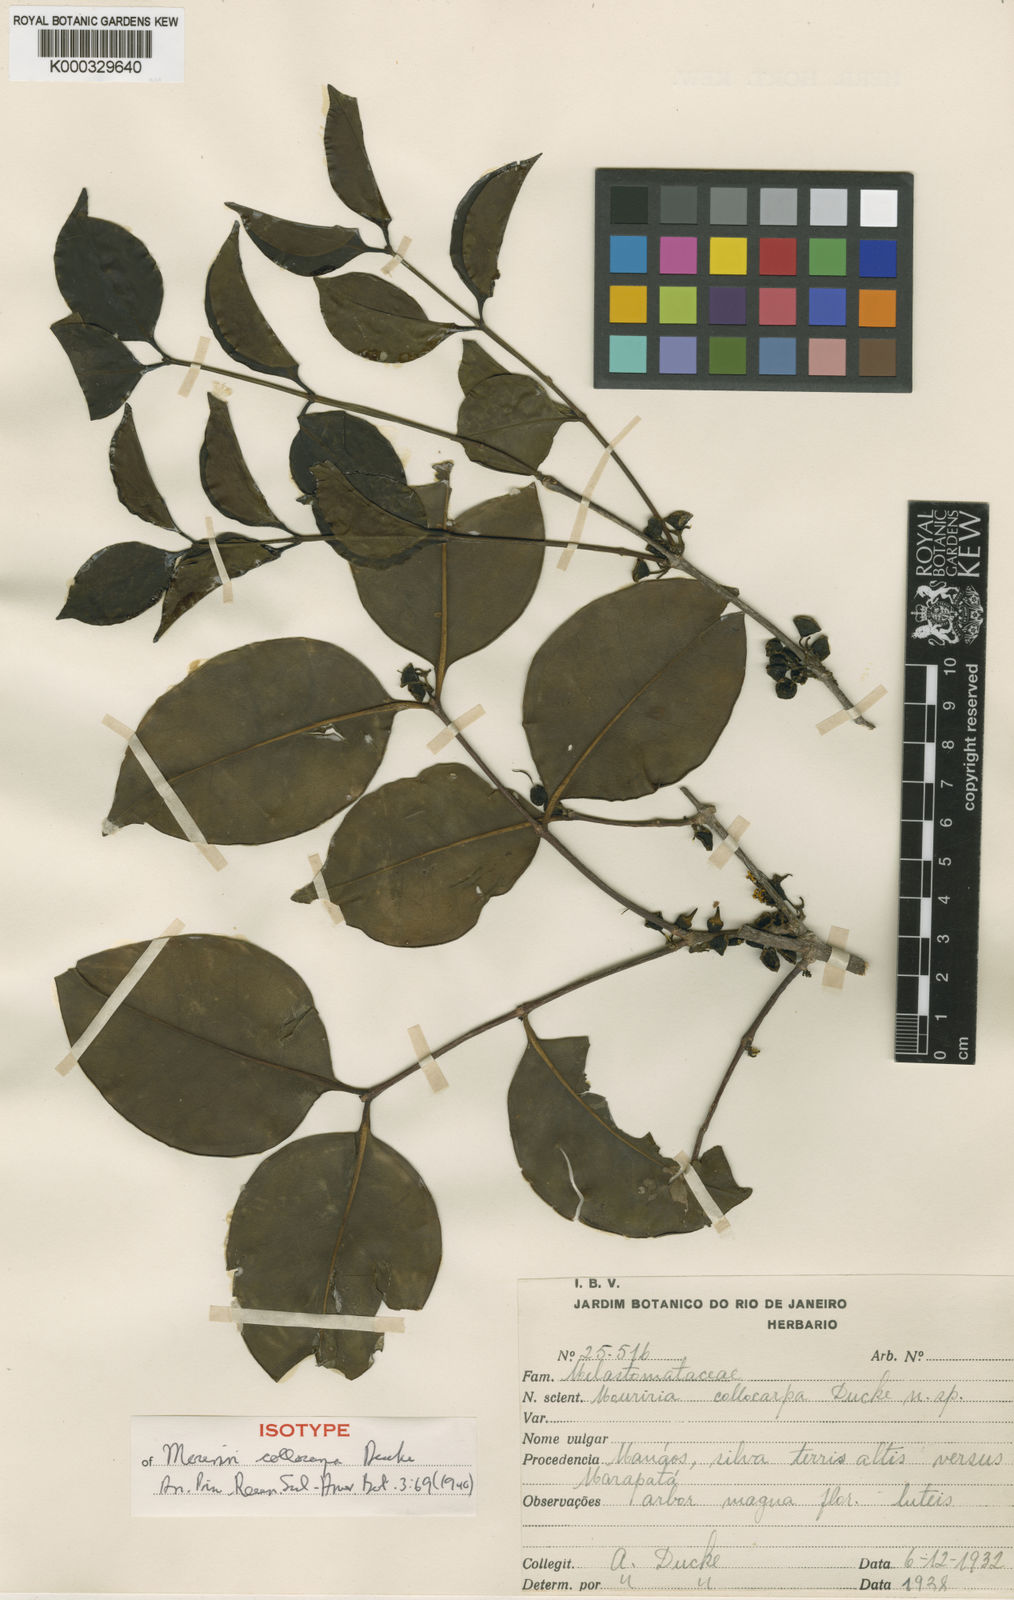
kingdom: Plantae
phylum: Tracheophyta
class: Magnoliopsida
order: Myrtales
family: Melastomataceae
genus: Mouriri
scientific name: Mouriri collocarpa
